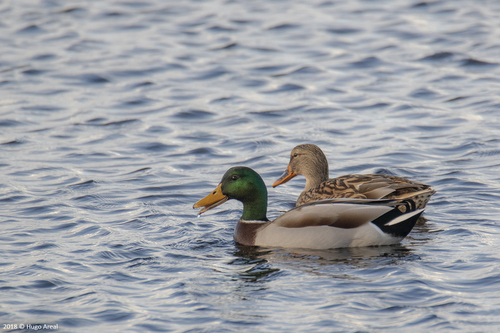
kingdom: Animalia
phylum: Chordata
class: Aves
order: Anseriformes
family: Anatidae
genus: Anas
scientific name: Anas platyrhynchos
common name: Mallard
